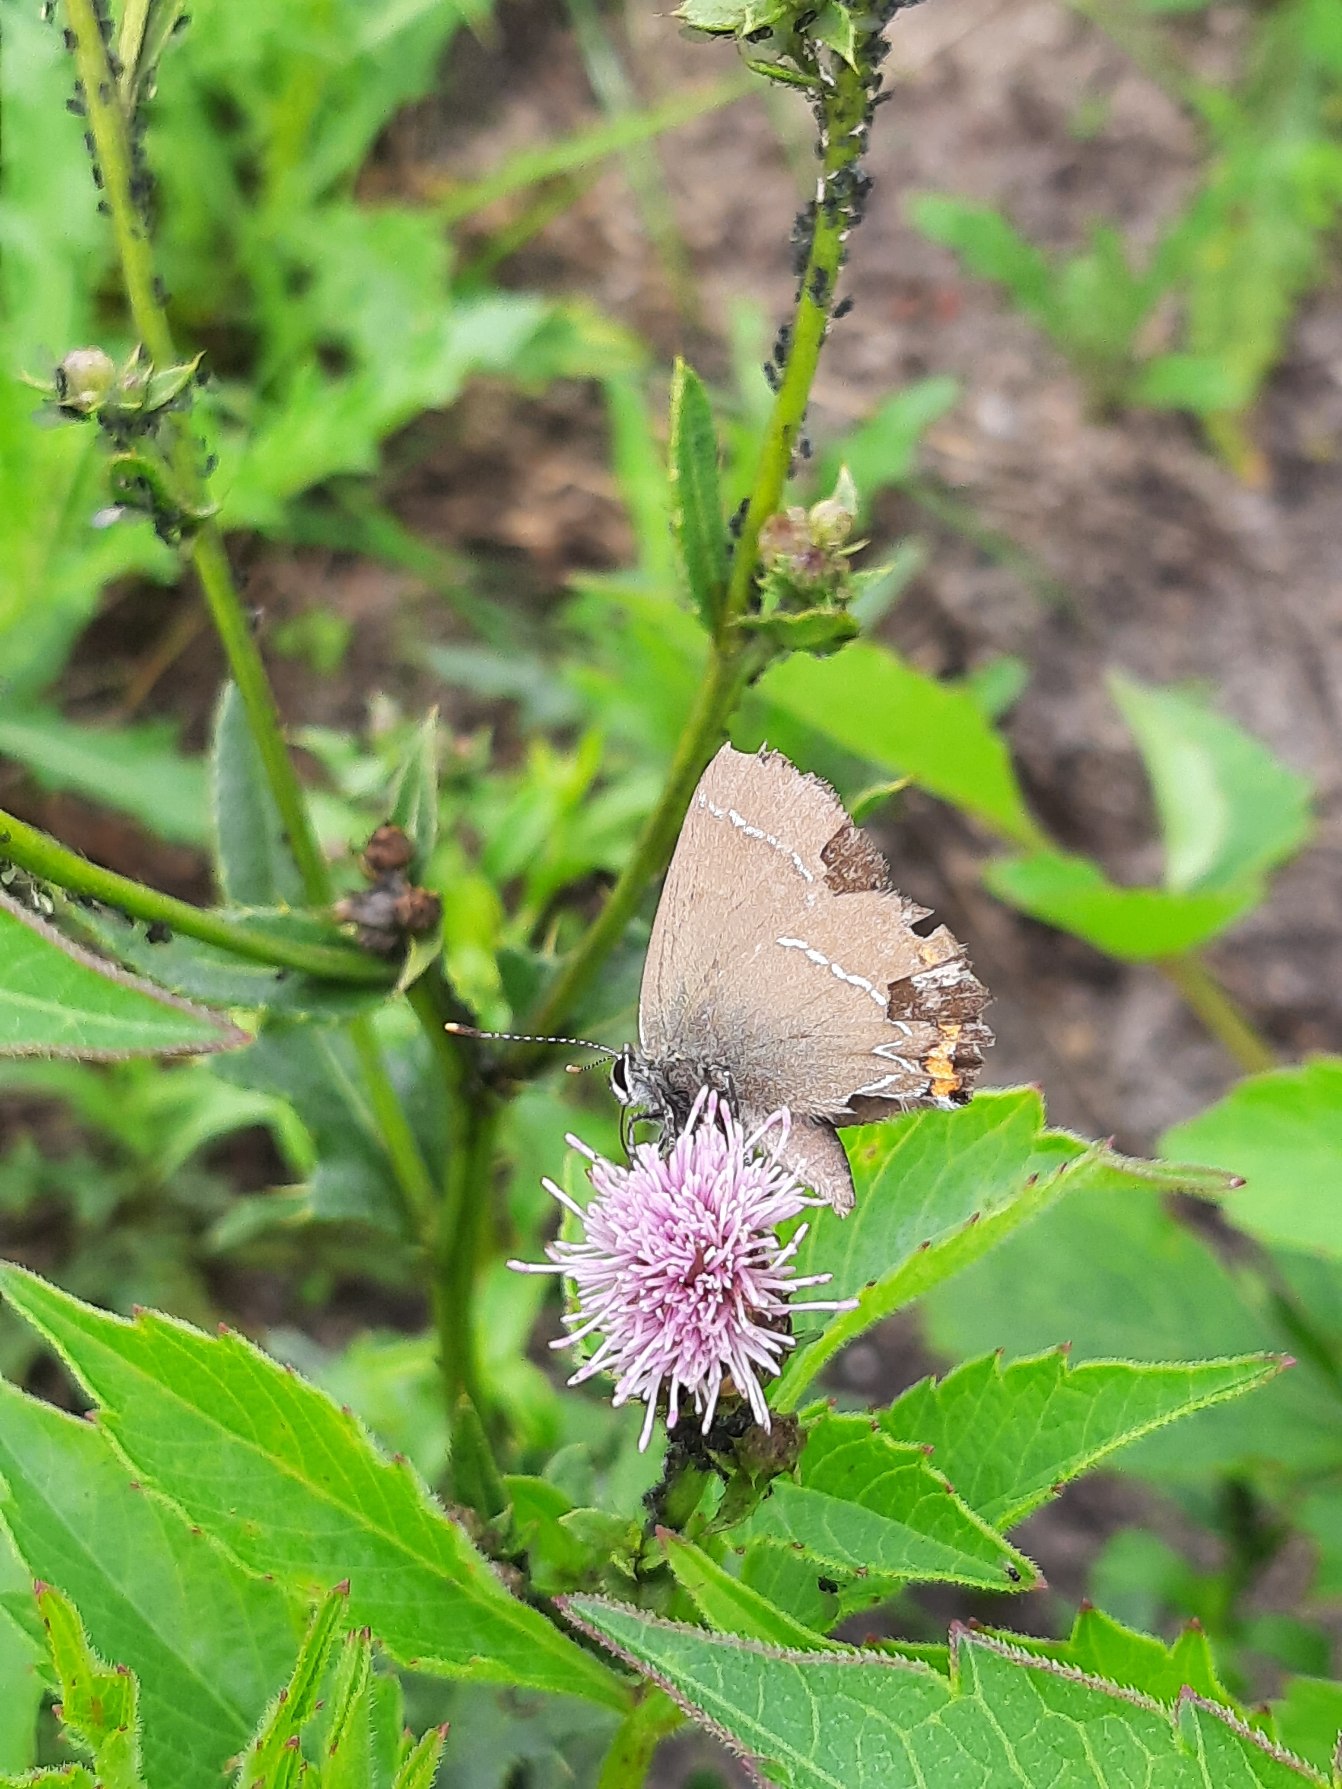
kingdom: Animalia
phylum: Arthropoda
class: Insecta
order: Lepidoptera
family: Lycaenidae
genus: Satyrium
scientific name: Satyrium w-album
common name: Det hvide W
